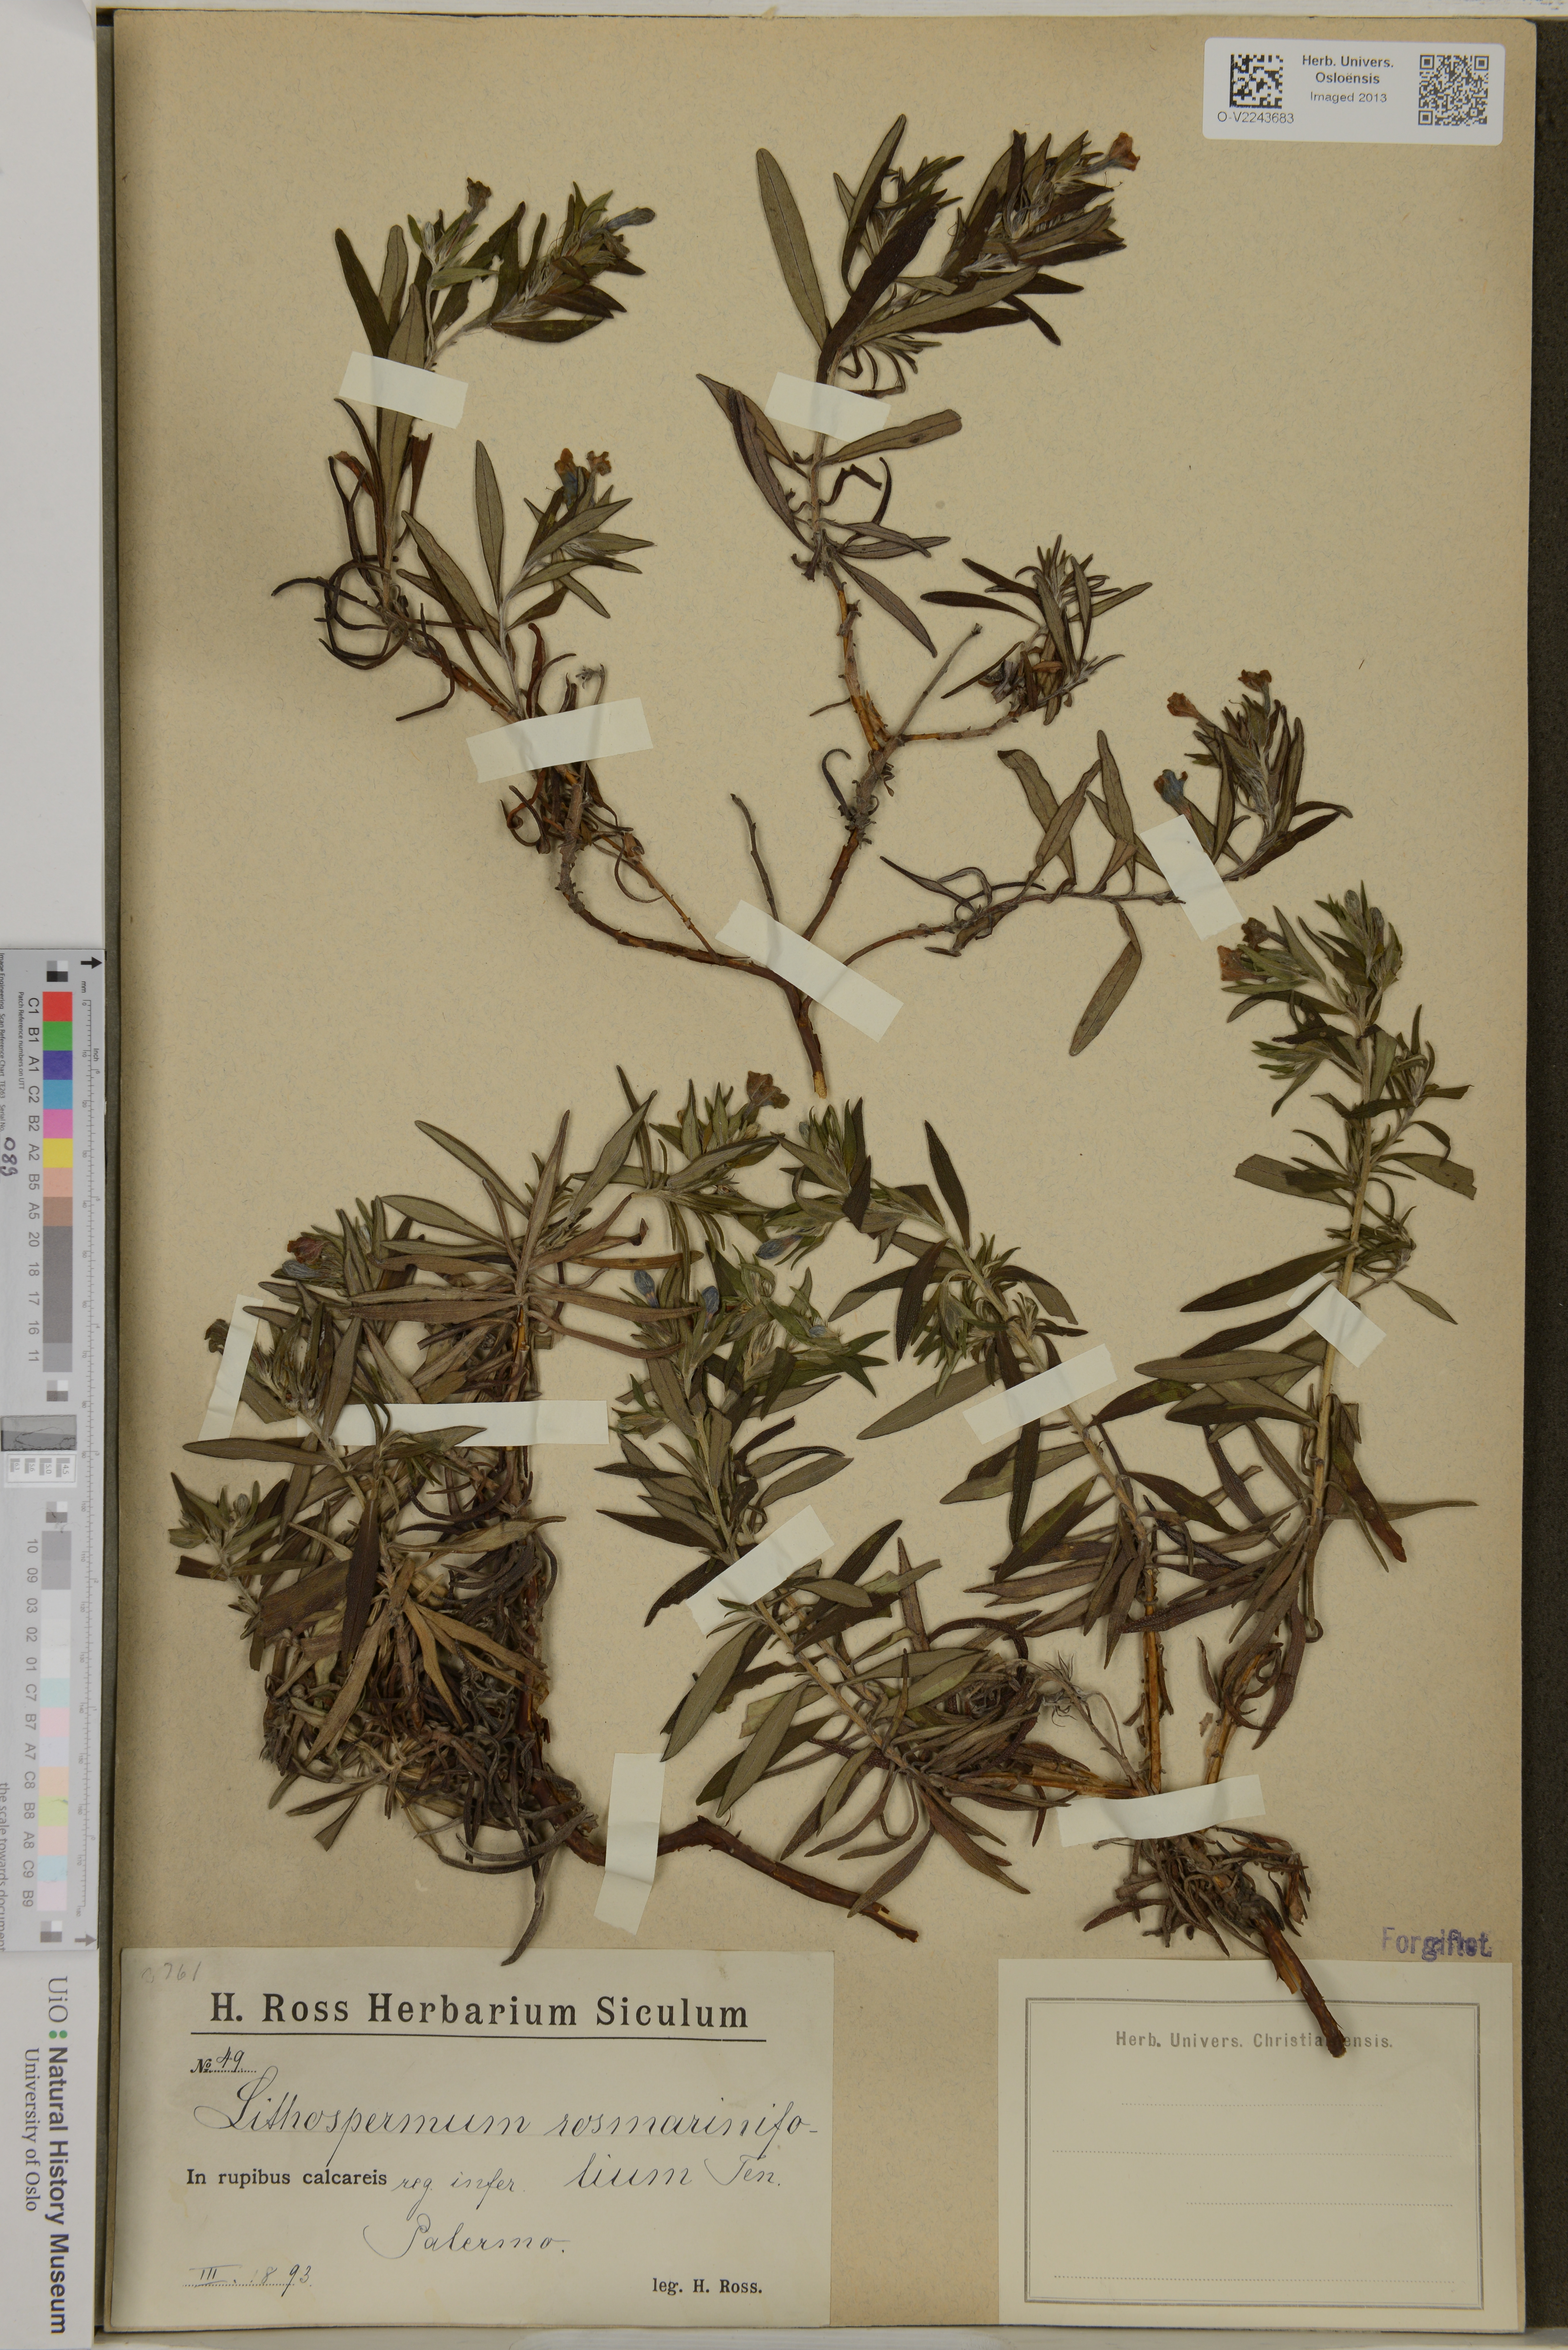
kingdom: Plantae
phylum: Tracheophyta
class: Magnoliopsida
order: Boraginales
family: Boraginaceae
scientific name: Boraginaceae
